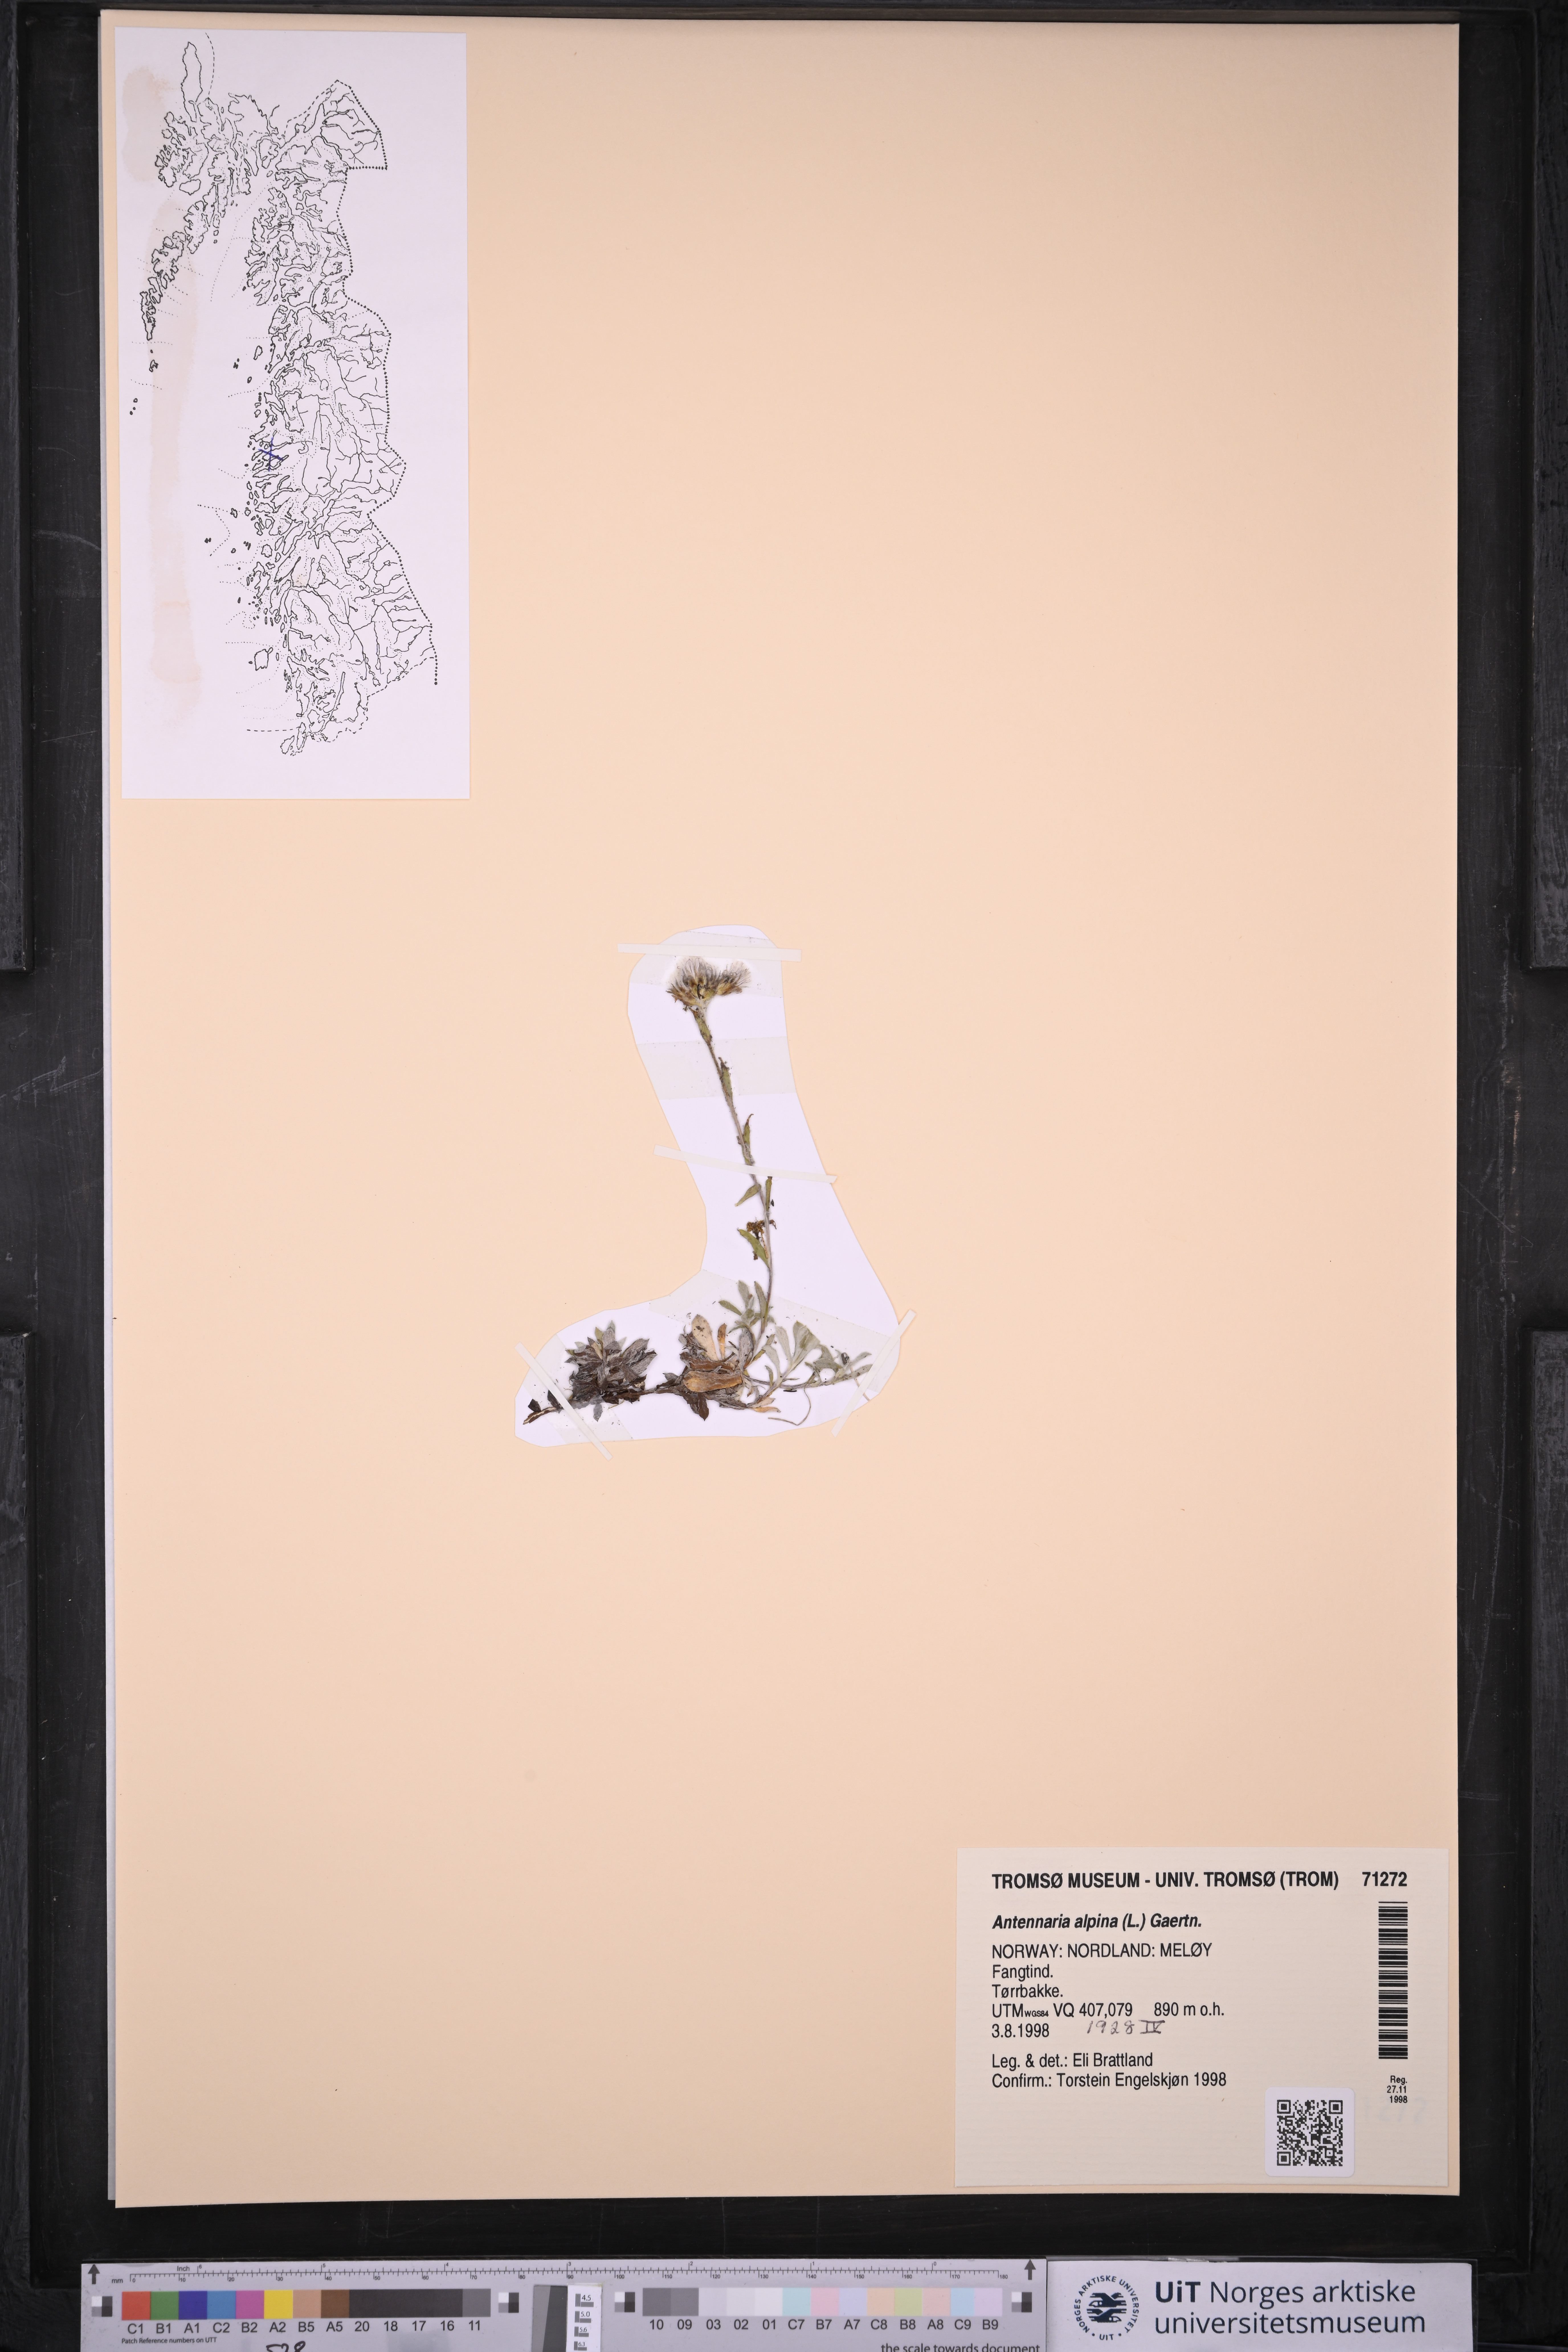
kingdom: Plantae
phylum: Tracheophyta
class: Magnoliopsida
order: Asterales
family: Asteraceae
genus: Antennaria
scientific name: Antennaria alpina
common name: Alpine pussytoes
